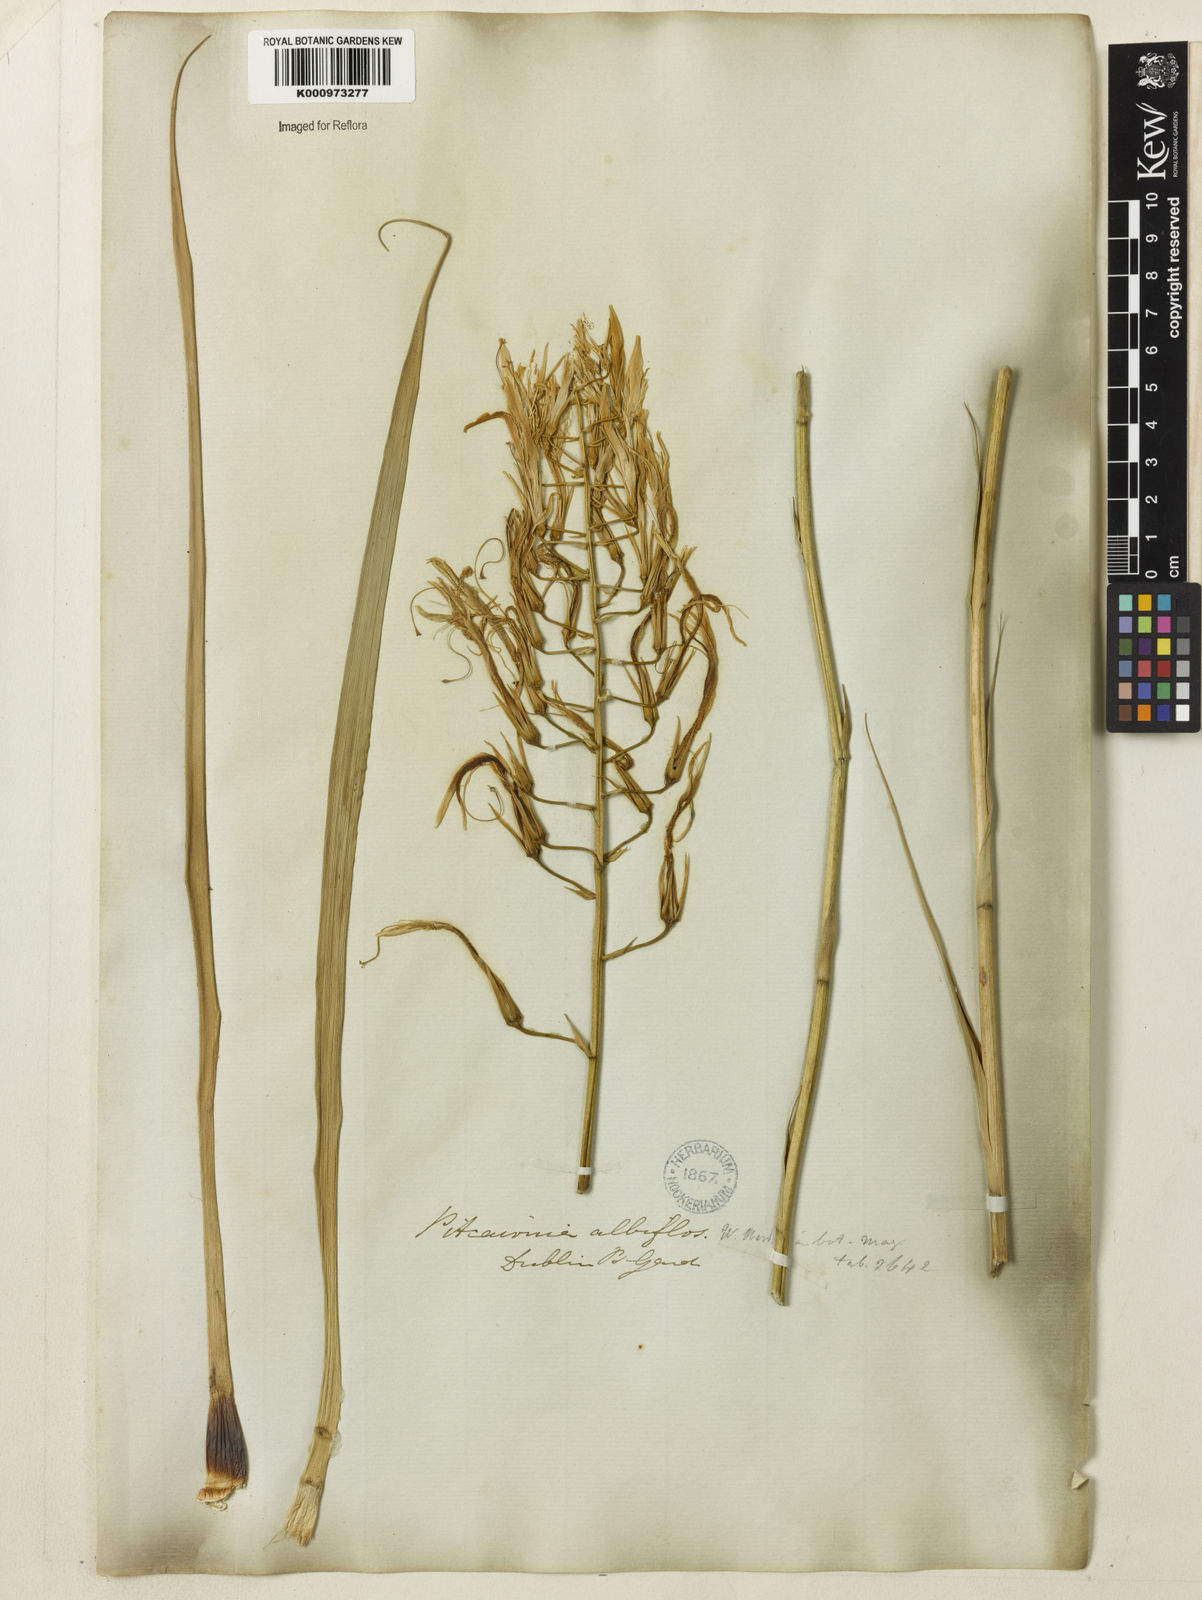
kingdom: Plantae
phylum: Tracheophyta
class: Liliopsida
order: Poales
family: Bromeliaceae
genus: Pitcairnia
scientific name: Pitcairnia albiflos
